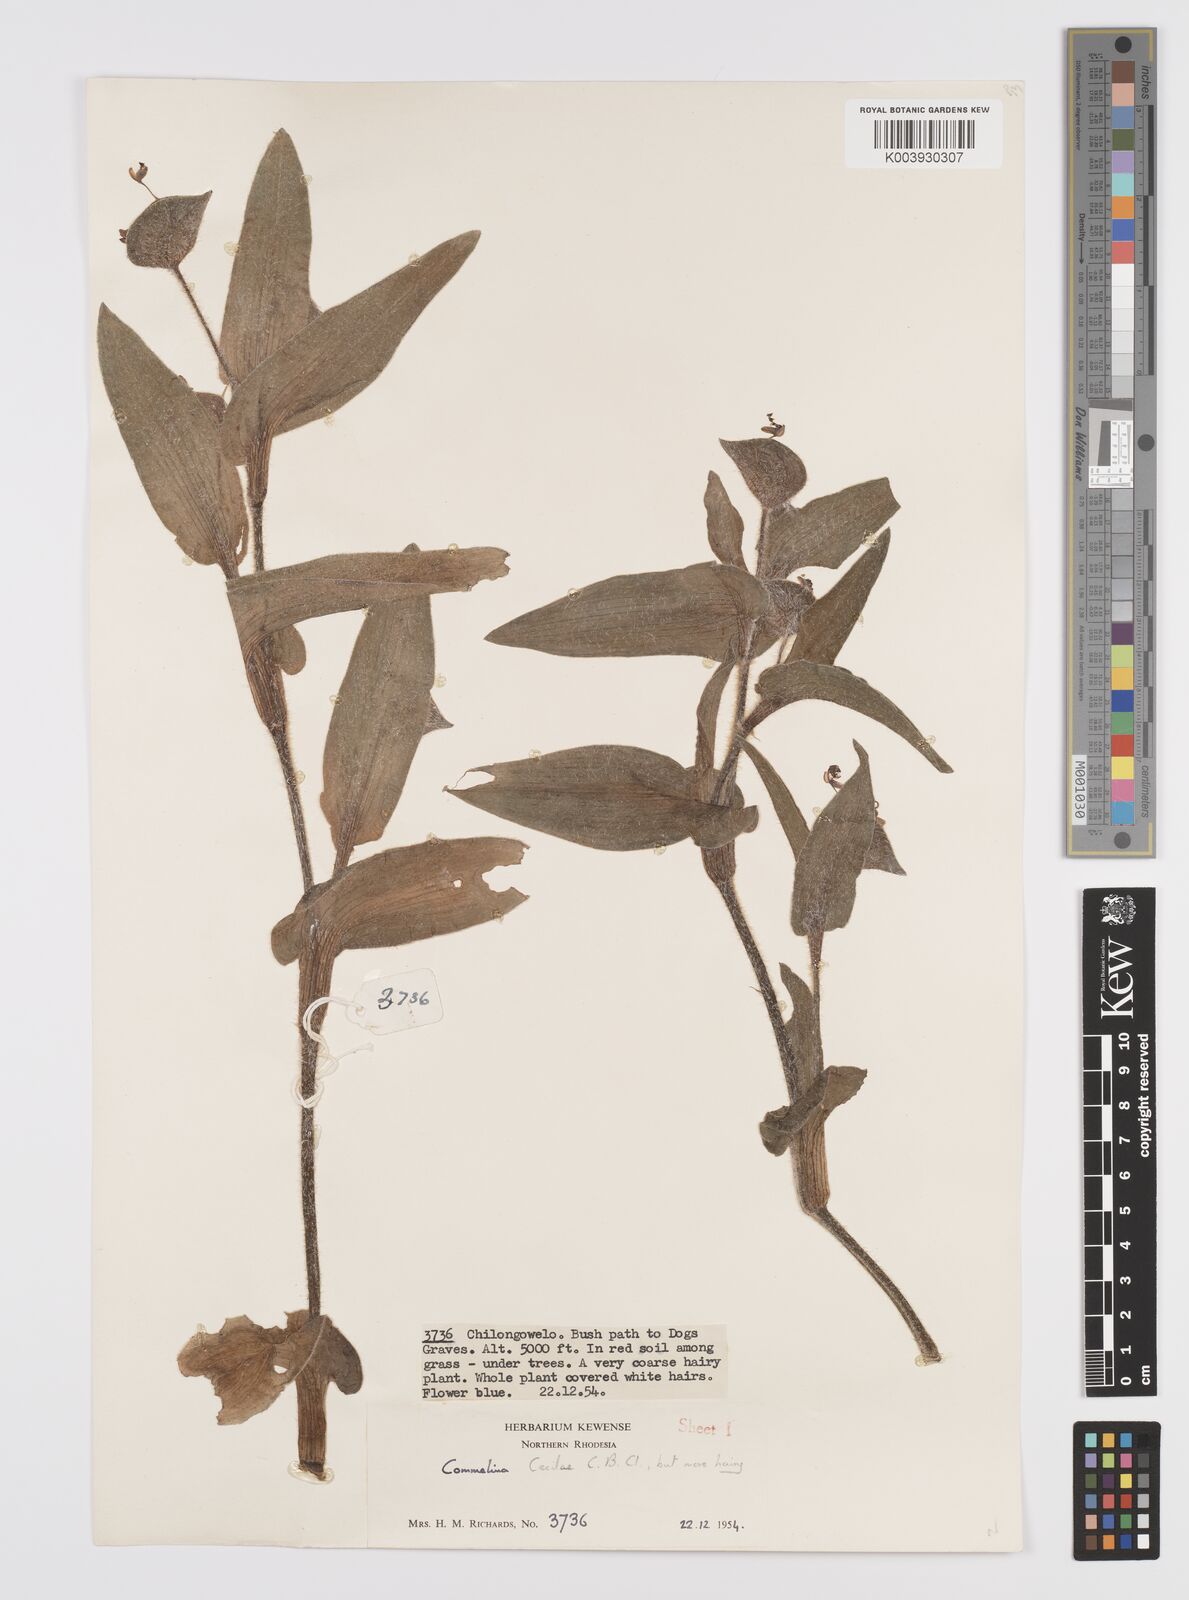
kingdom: Plantae
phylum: Tracheophyta
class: Liliopsida
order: Commelinales
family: Commelinaceae
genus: Commelina
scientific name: Commelina cecilae
